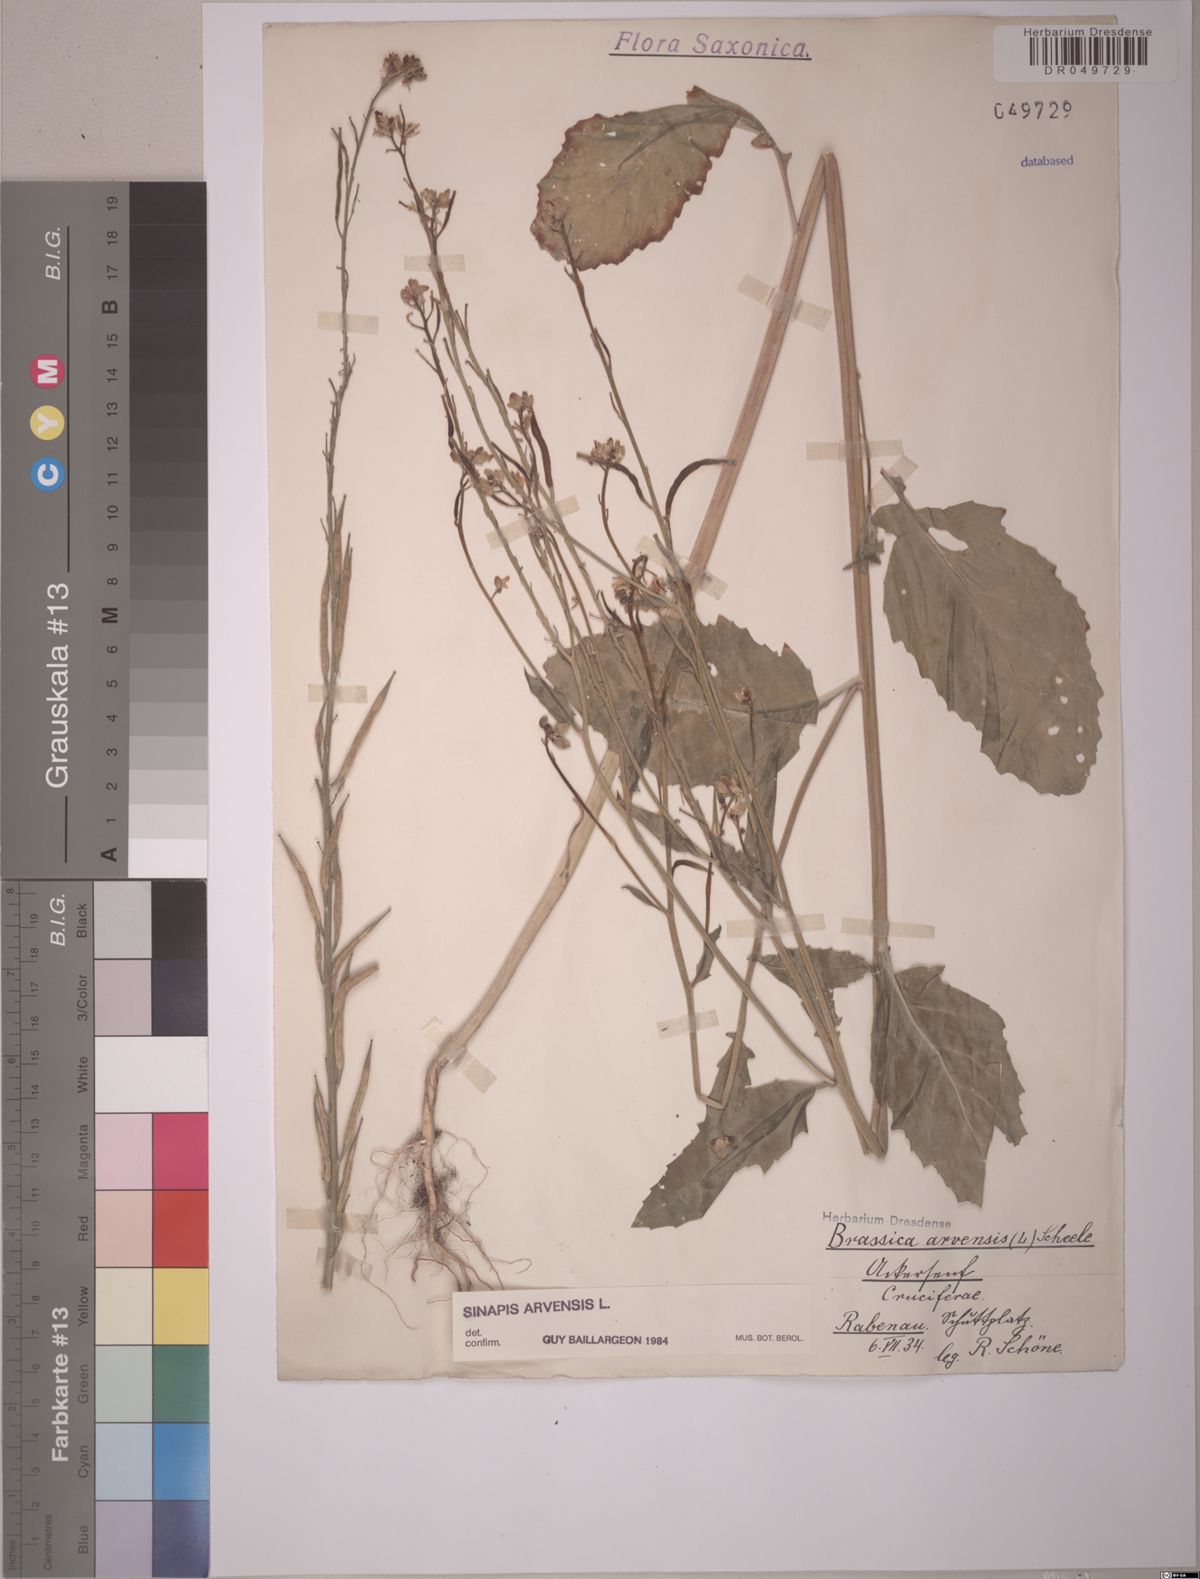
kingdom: Plantae
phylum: Tracheophyta
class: Magnoliopsida
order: Brassicales
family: Brassicaceae
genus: Sinapis
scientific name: Sinapis arvensis
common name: Charlock
